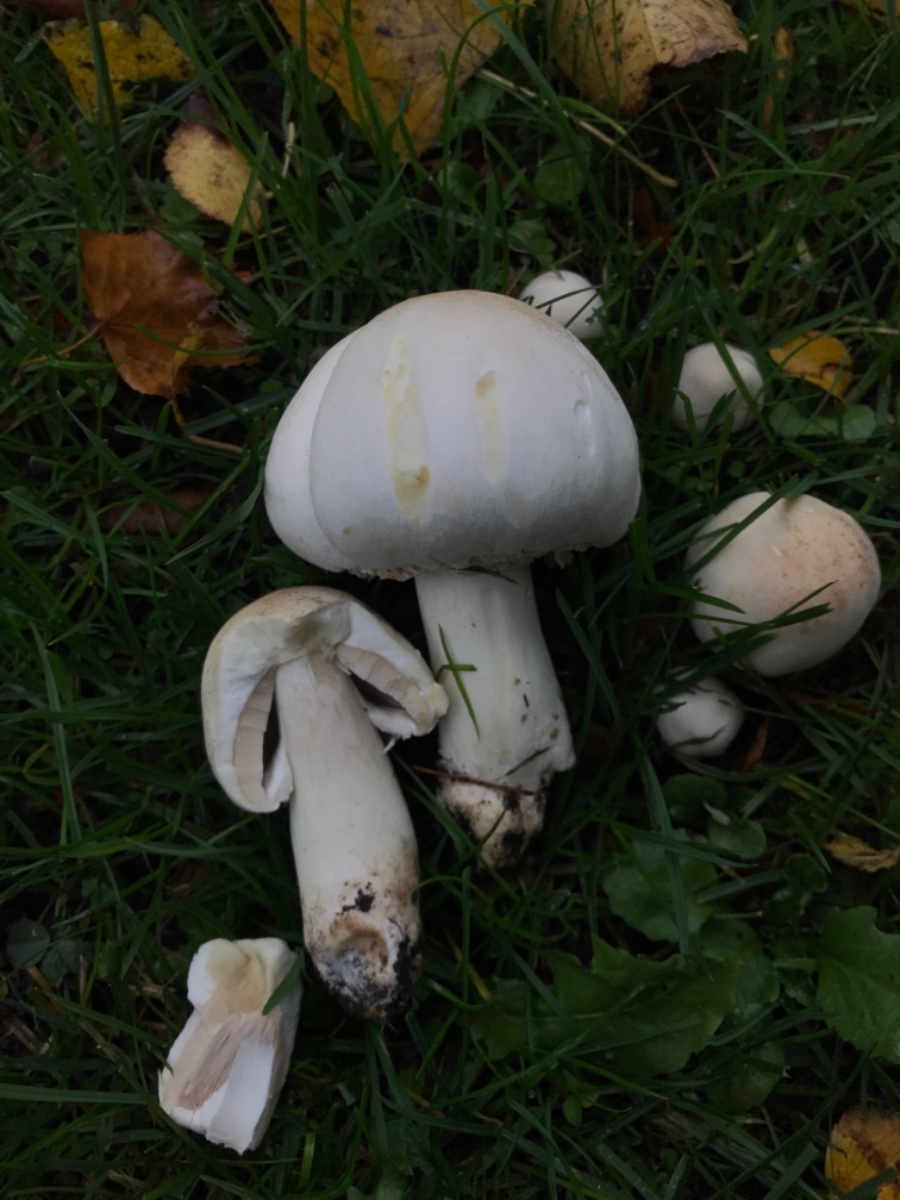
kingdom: Fungi
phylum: Basidiomycota
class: Agaricomycetes
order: Agaricales
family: Agaricaceae
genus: Agaricus
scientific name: Agaricus xanthodermus
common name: karbol-champignon
